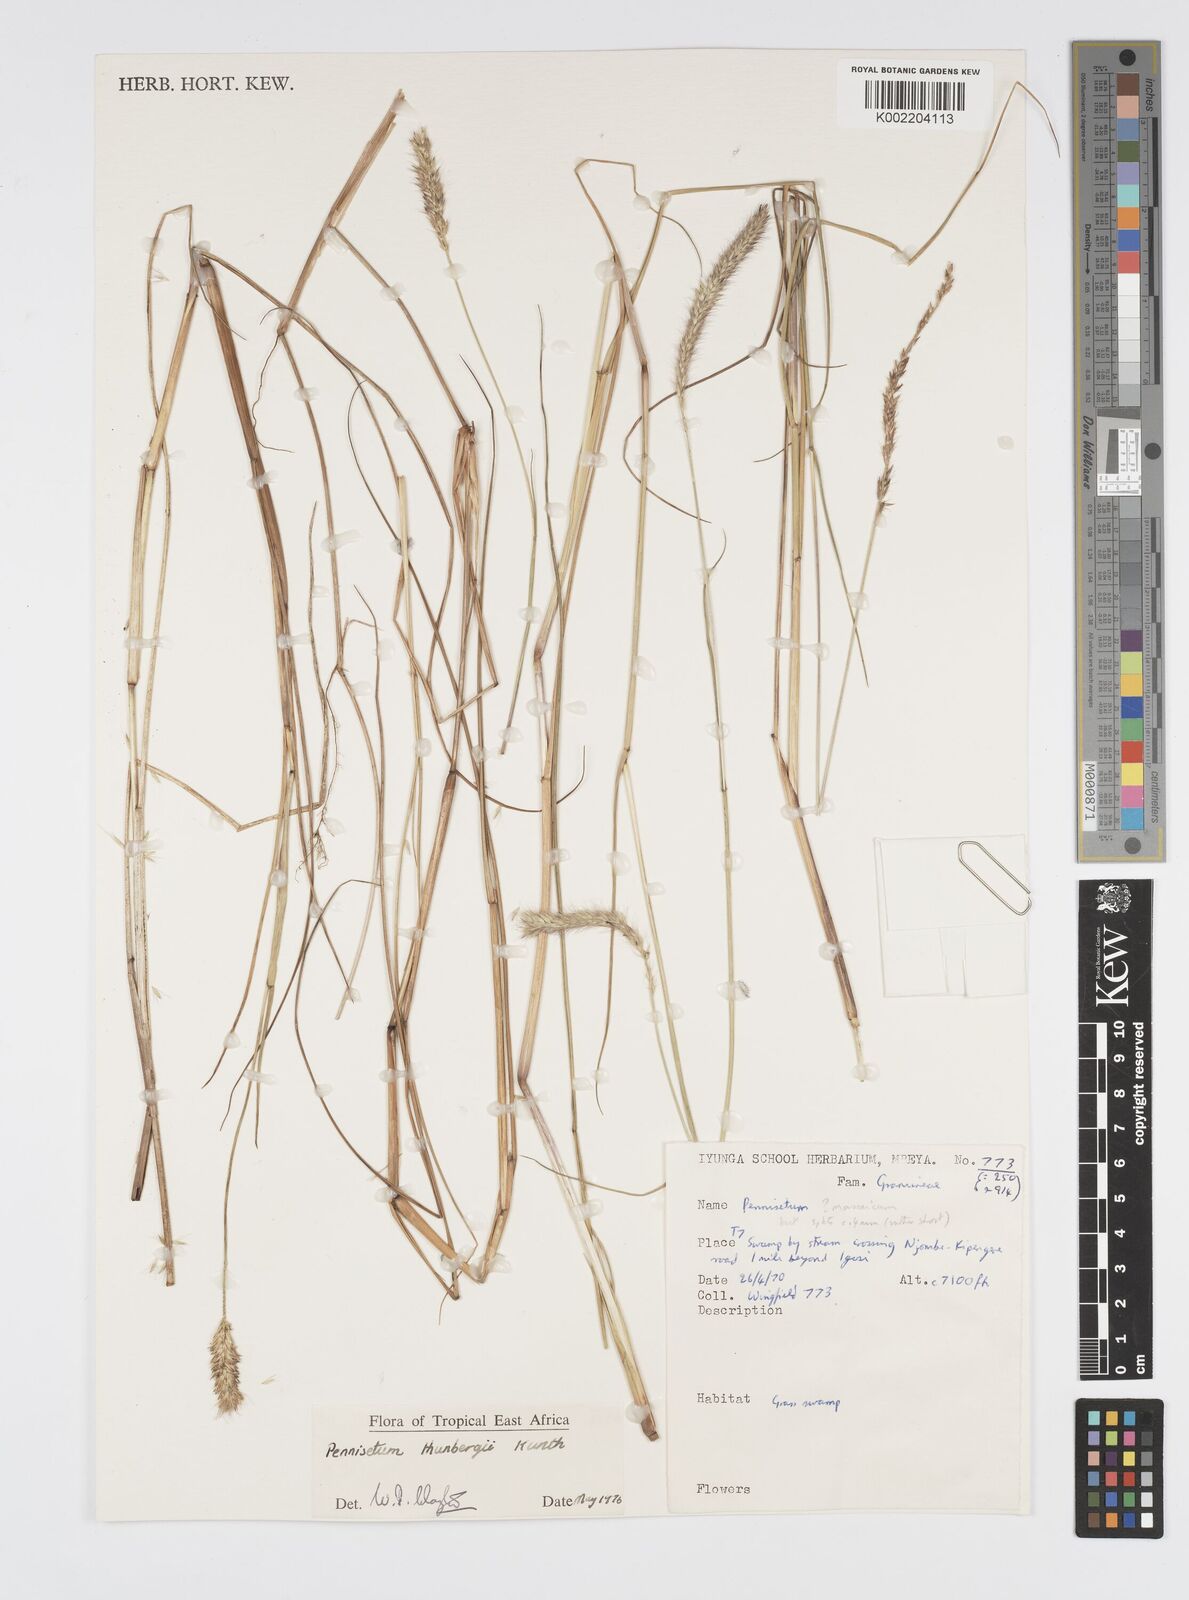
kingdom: Plantae
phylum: Tracheophyta
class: Liliopsida
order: Poales
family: Poaceae
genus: Cenchrus
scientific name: Cenchrus geniculatus
